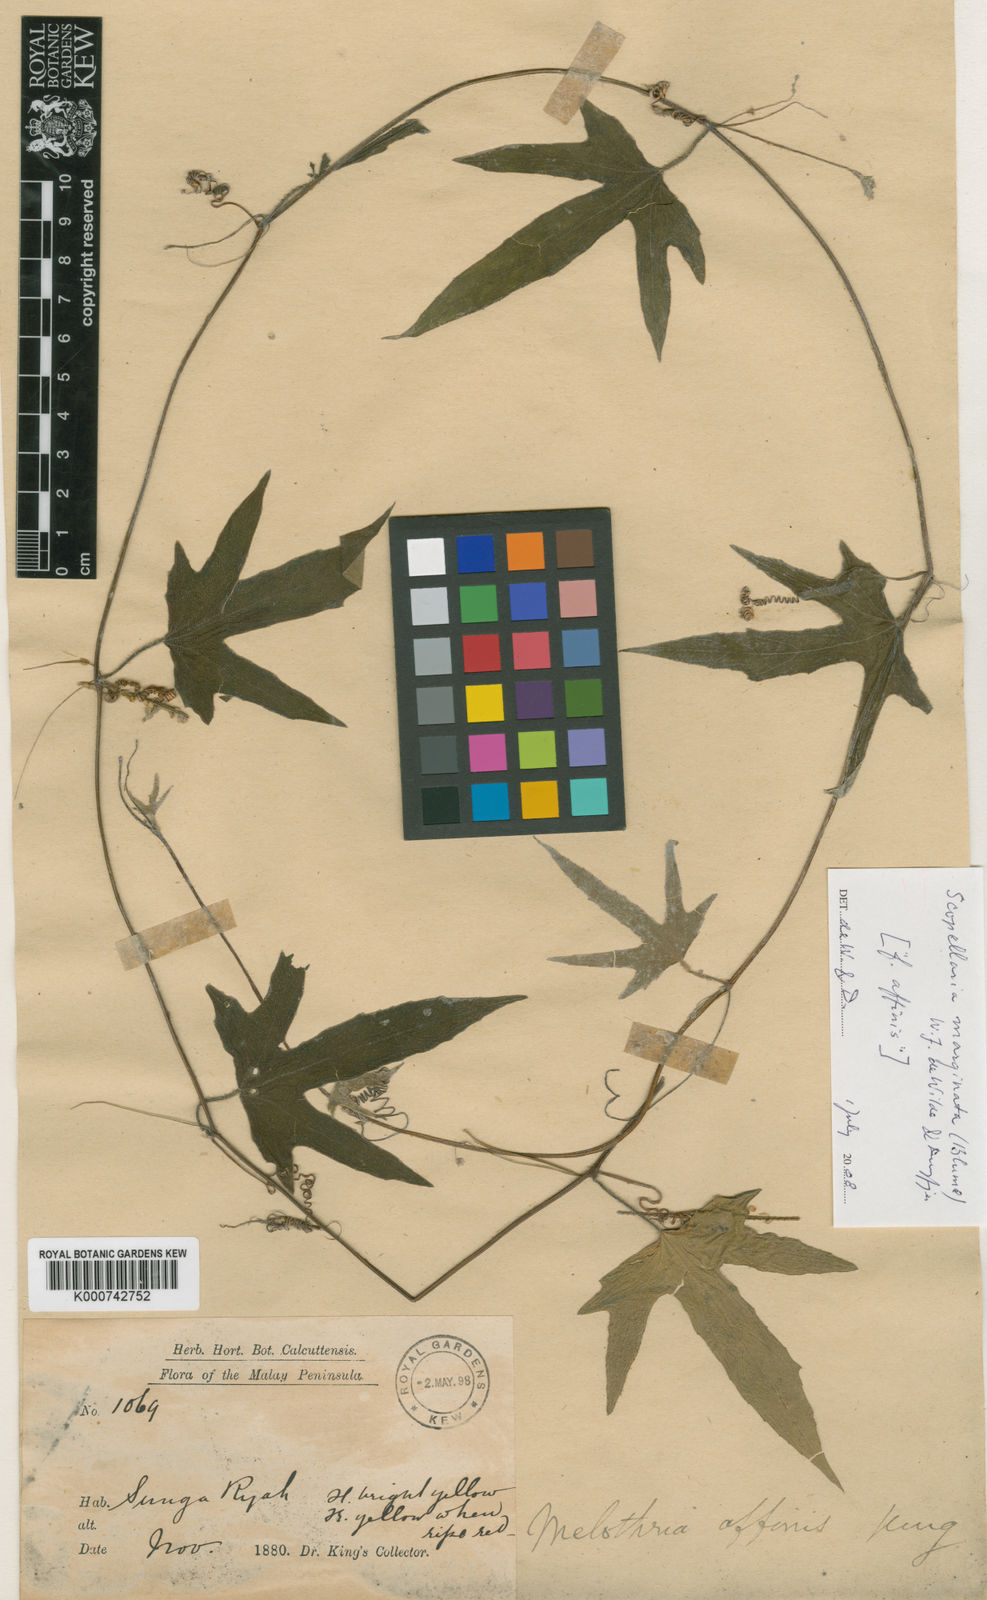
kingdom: Plantae
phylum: Tracheophyta
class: Magnoliopsida
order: Cucurbitales
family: Cucurbitaceae
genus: Scopellaria
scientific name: Scopellaria marginata
